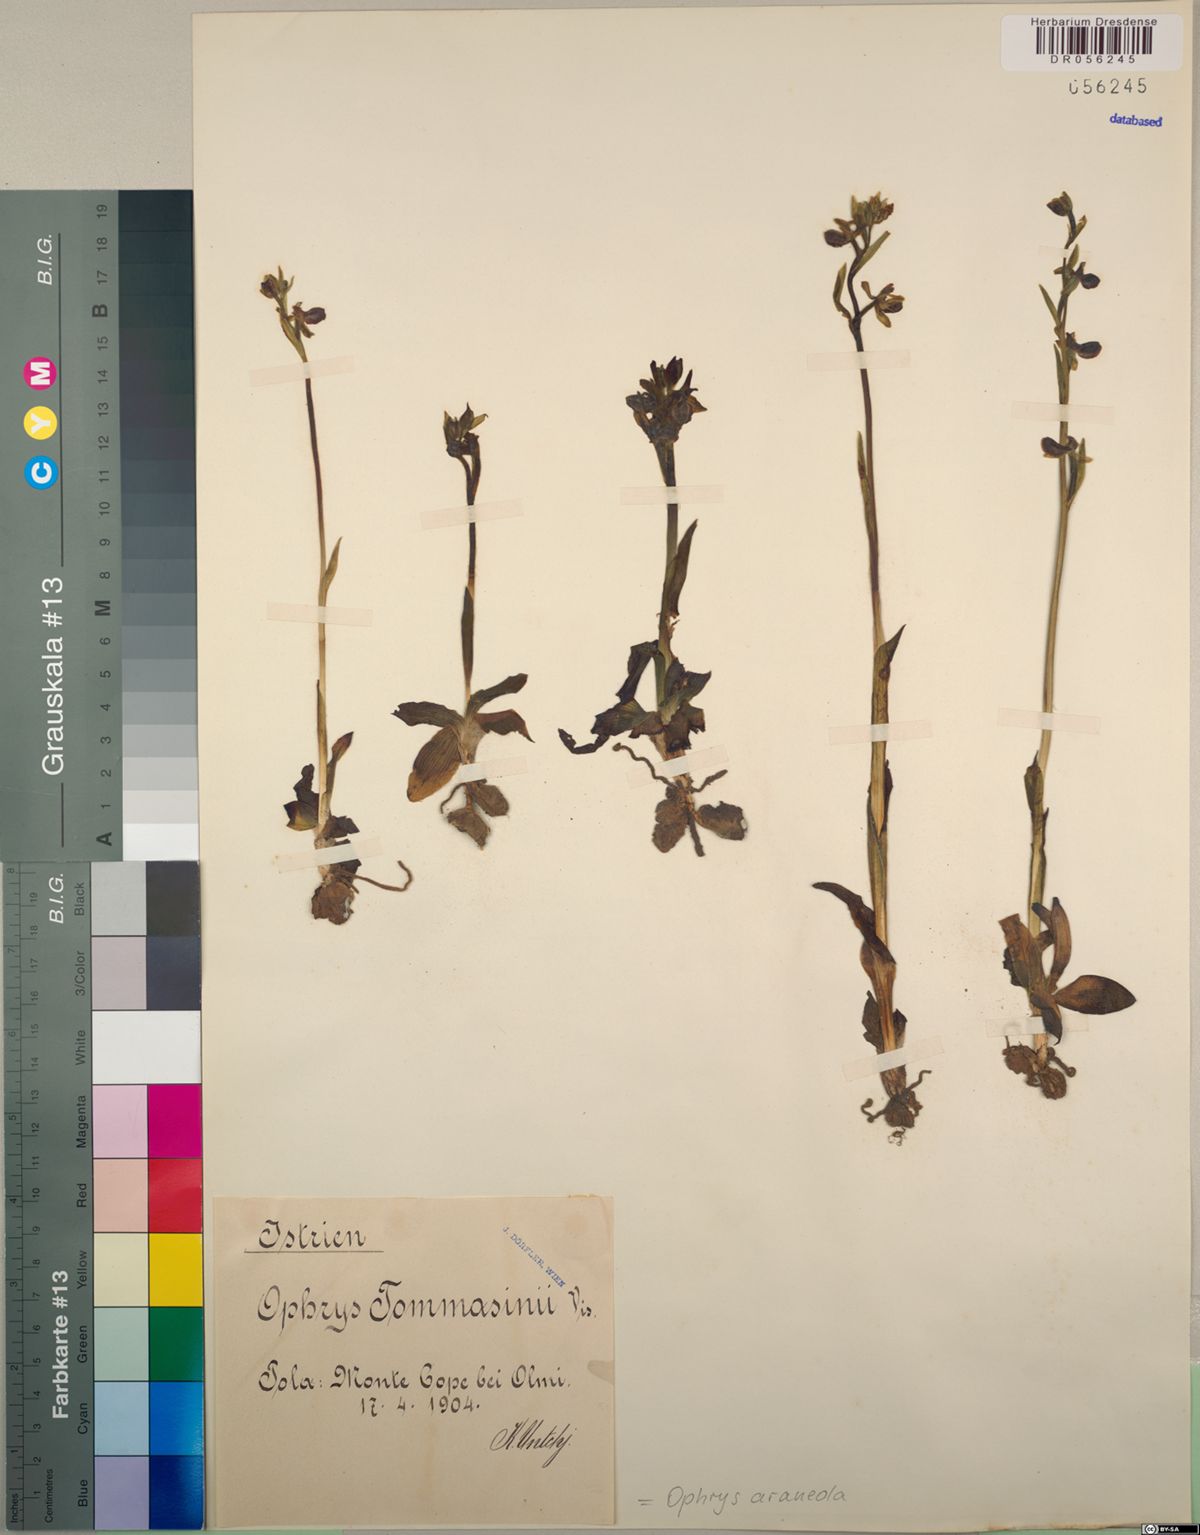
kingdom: Plantae
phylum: Tracheophyta
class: Liliopsida
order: Asparagales
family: Orchidaceae
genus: Ophrys
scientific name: Ophrys sphegodes
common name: Early spider-orchid
